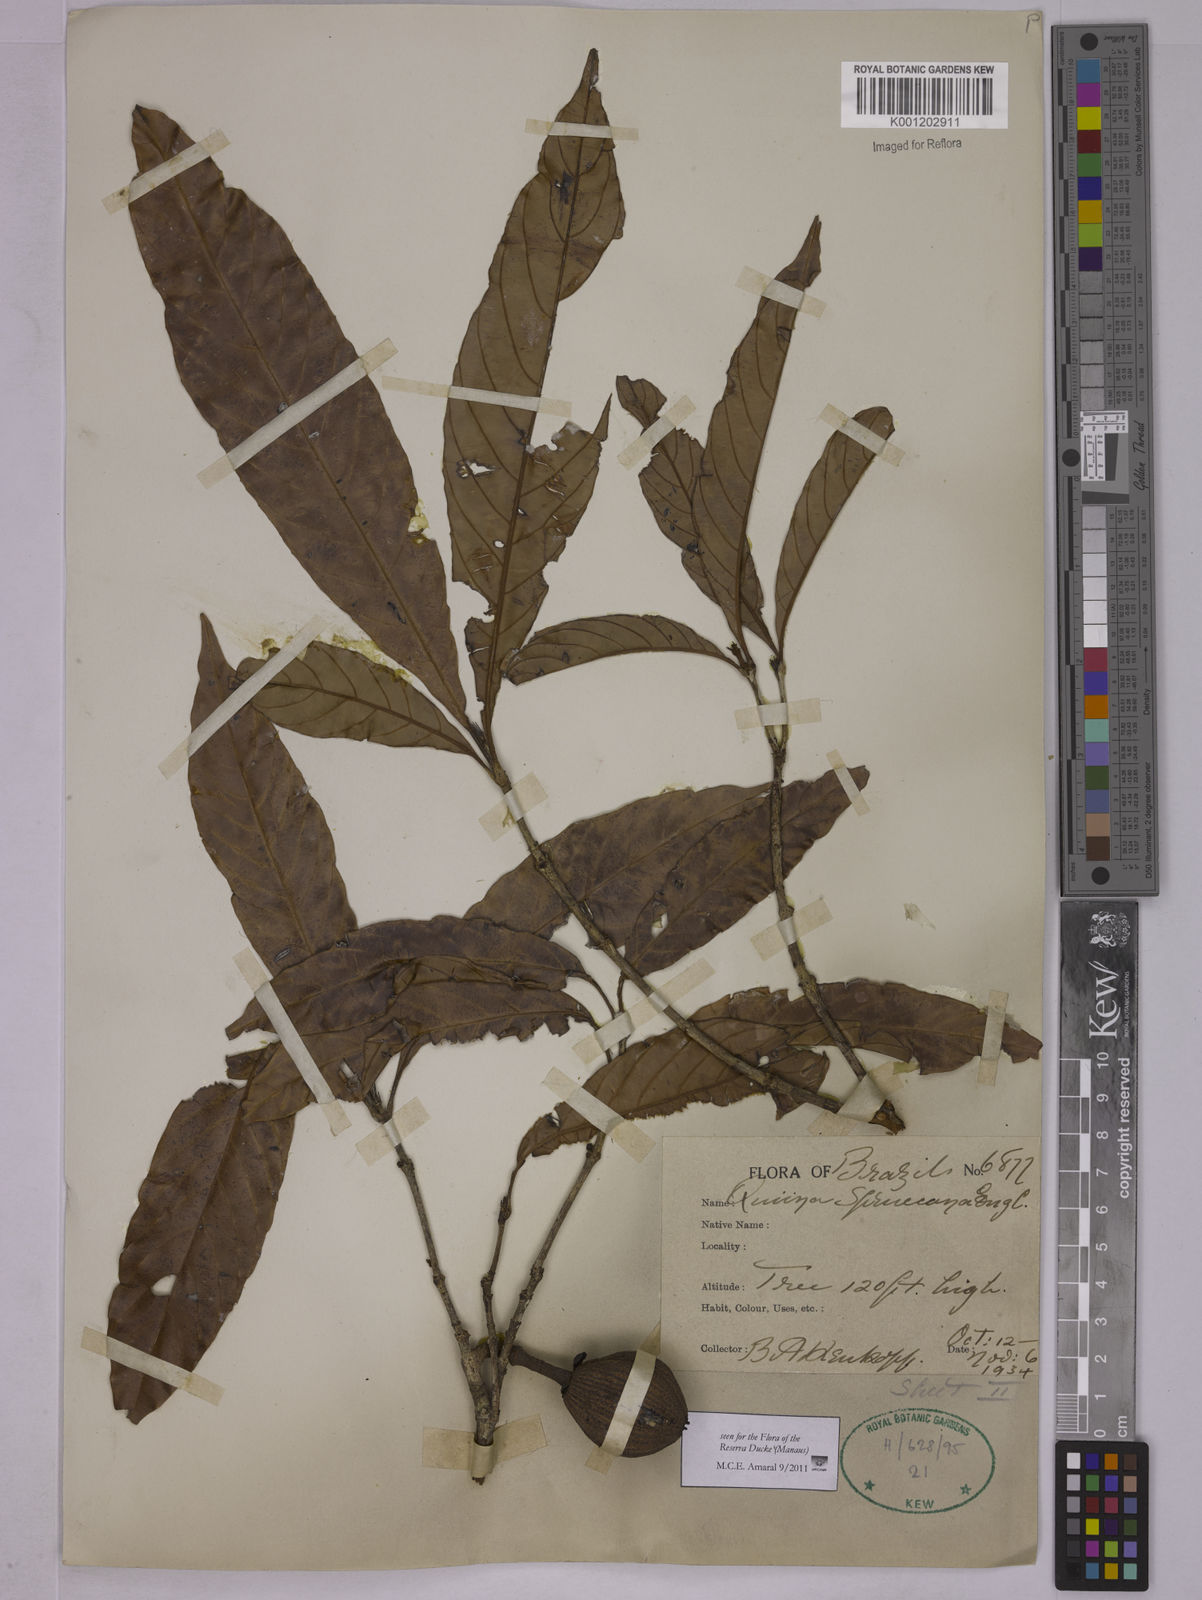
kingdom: Plantae
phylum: Tracheophyta
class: Magnoliopsida
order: Malpighiales
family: Quiinaceae
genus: Quiina
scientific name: Quiina macrophylla
